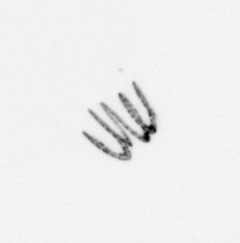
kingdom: Chromista
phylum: Ochrophyta
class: Bacillariophyceae
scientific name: Bacillariophyceae
